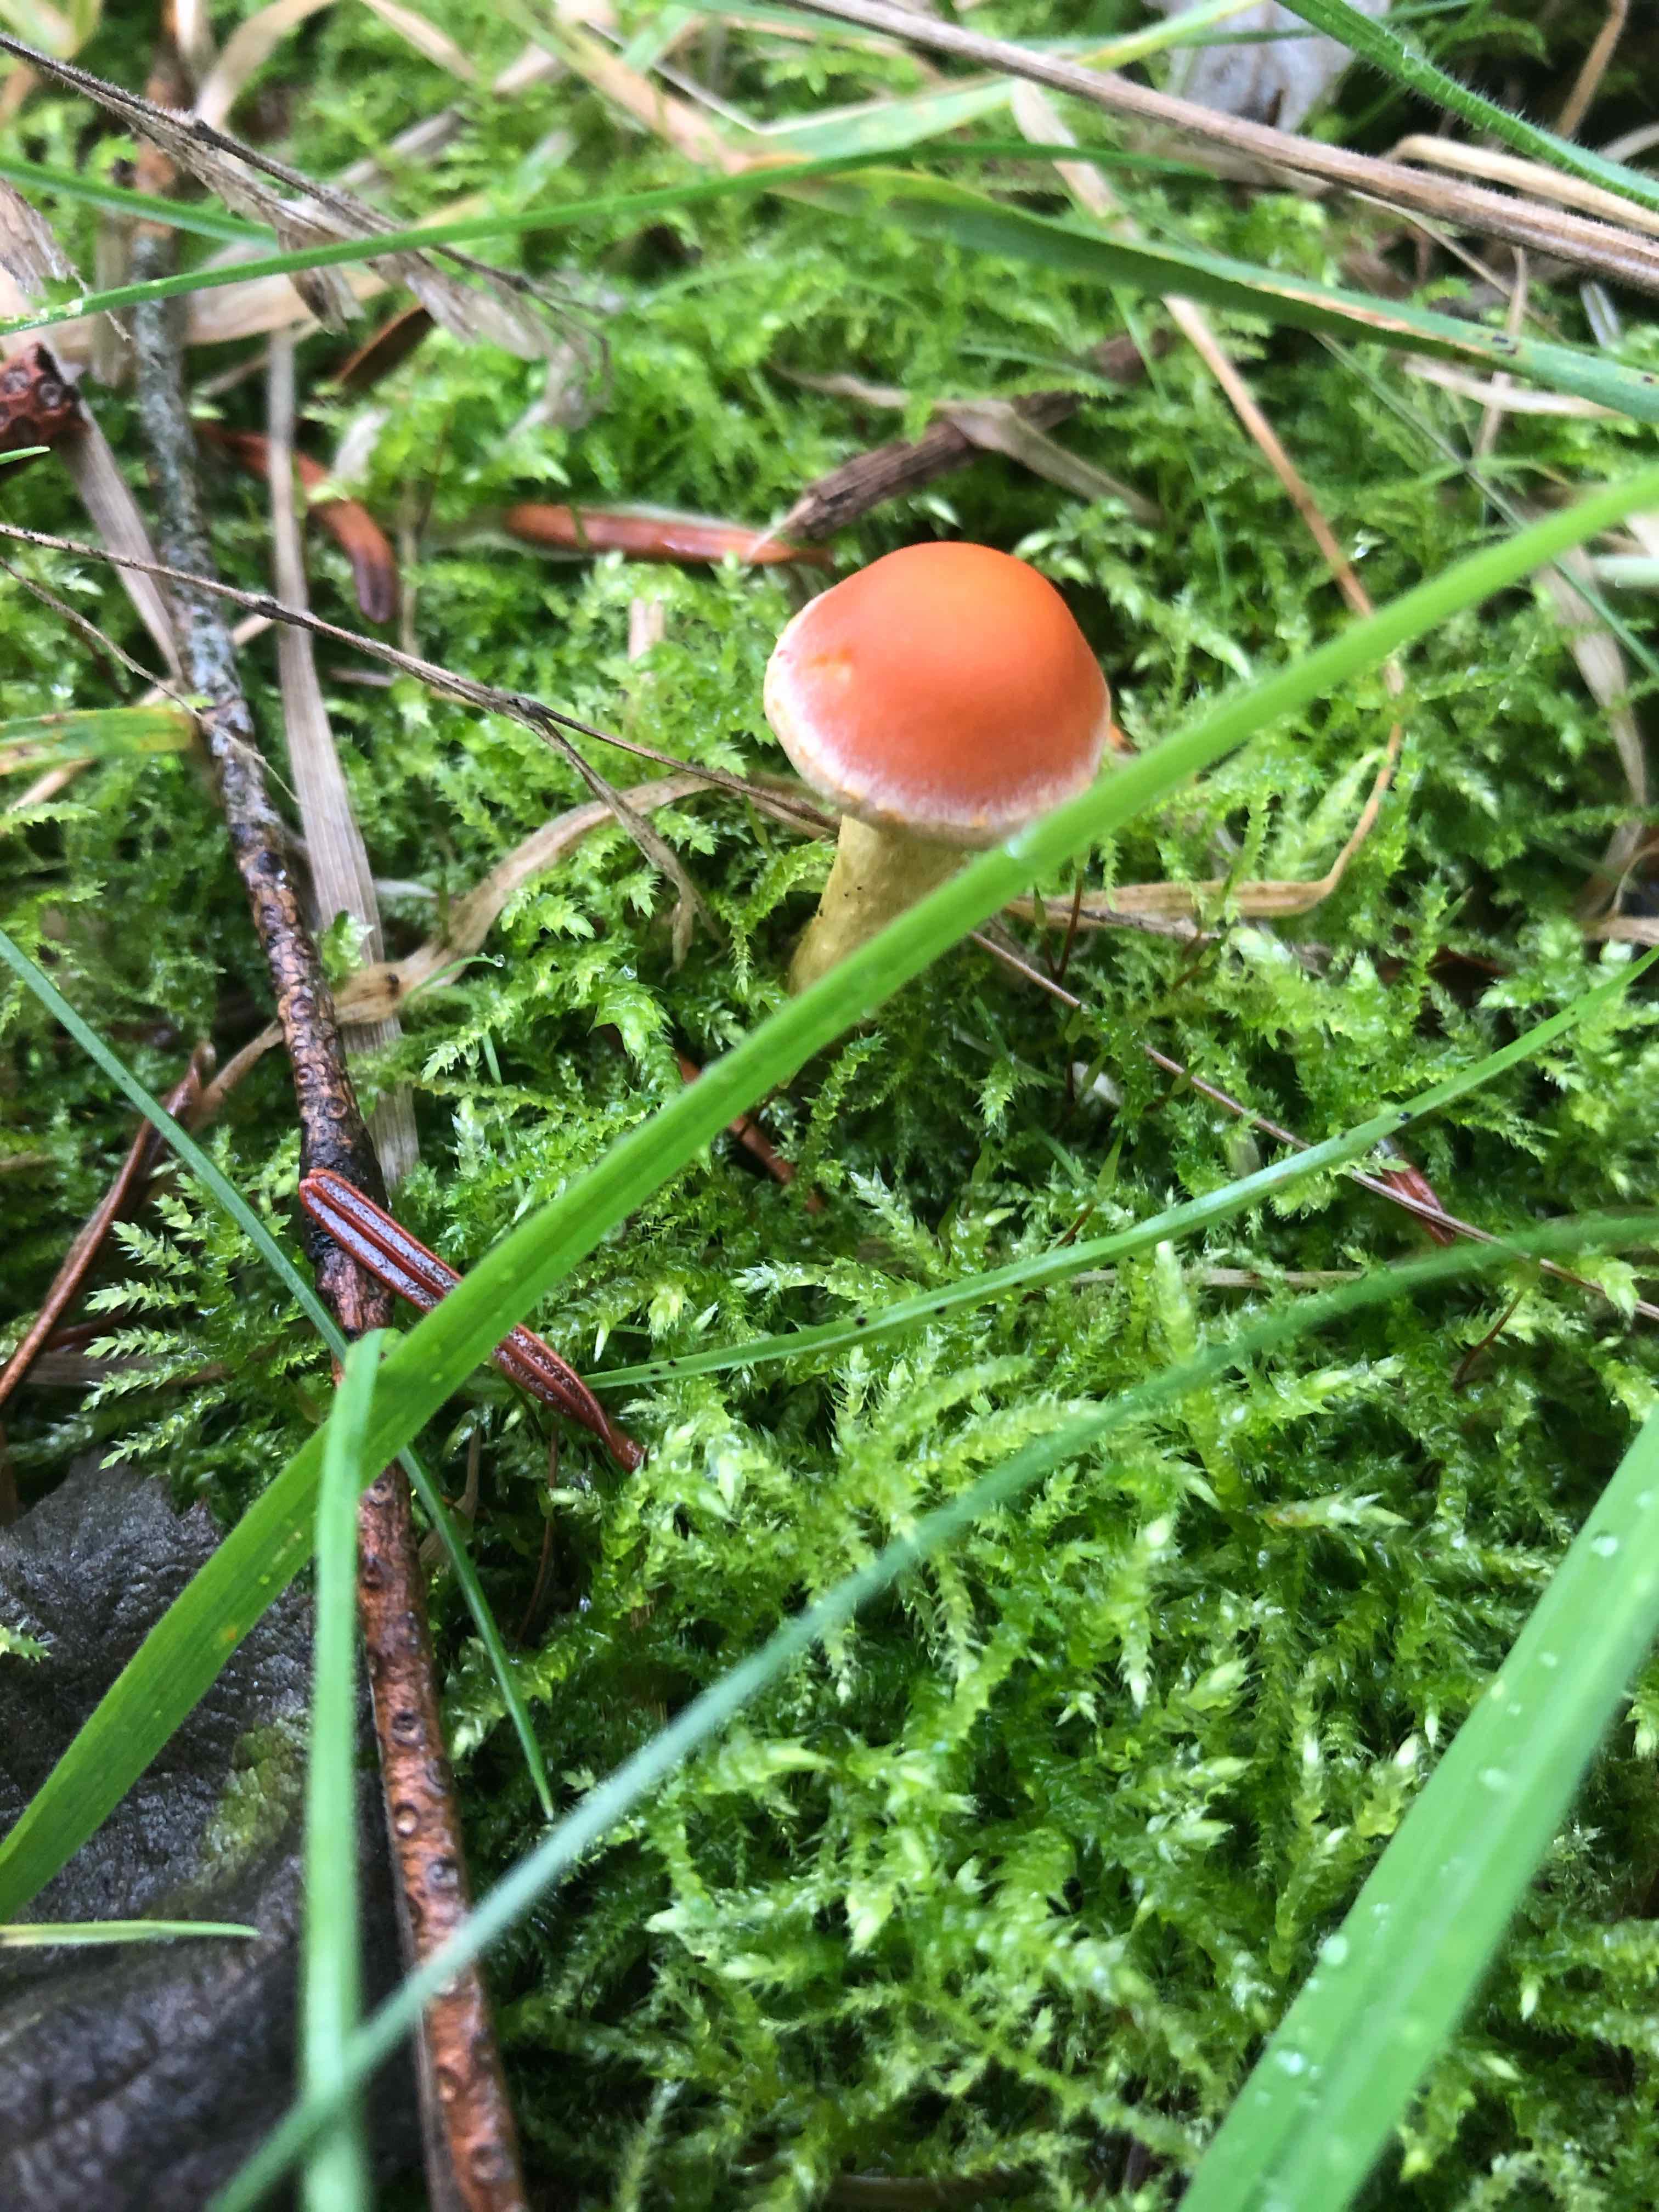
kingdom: Fungi
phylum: Basidiomycota
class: Agaricomycetes
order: Agaricales
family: Strophariaceae
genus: Hypholoma
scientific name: Hypholoma
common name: svovlhat
